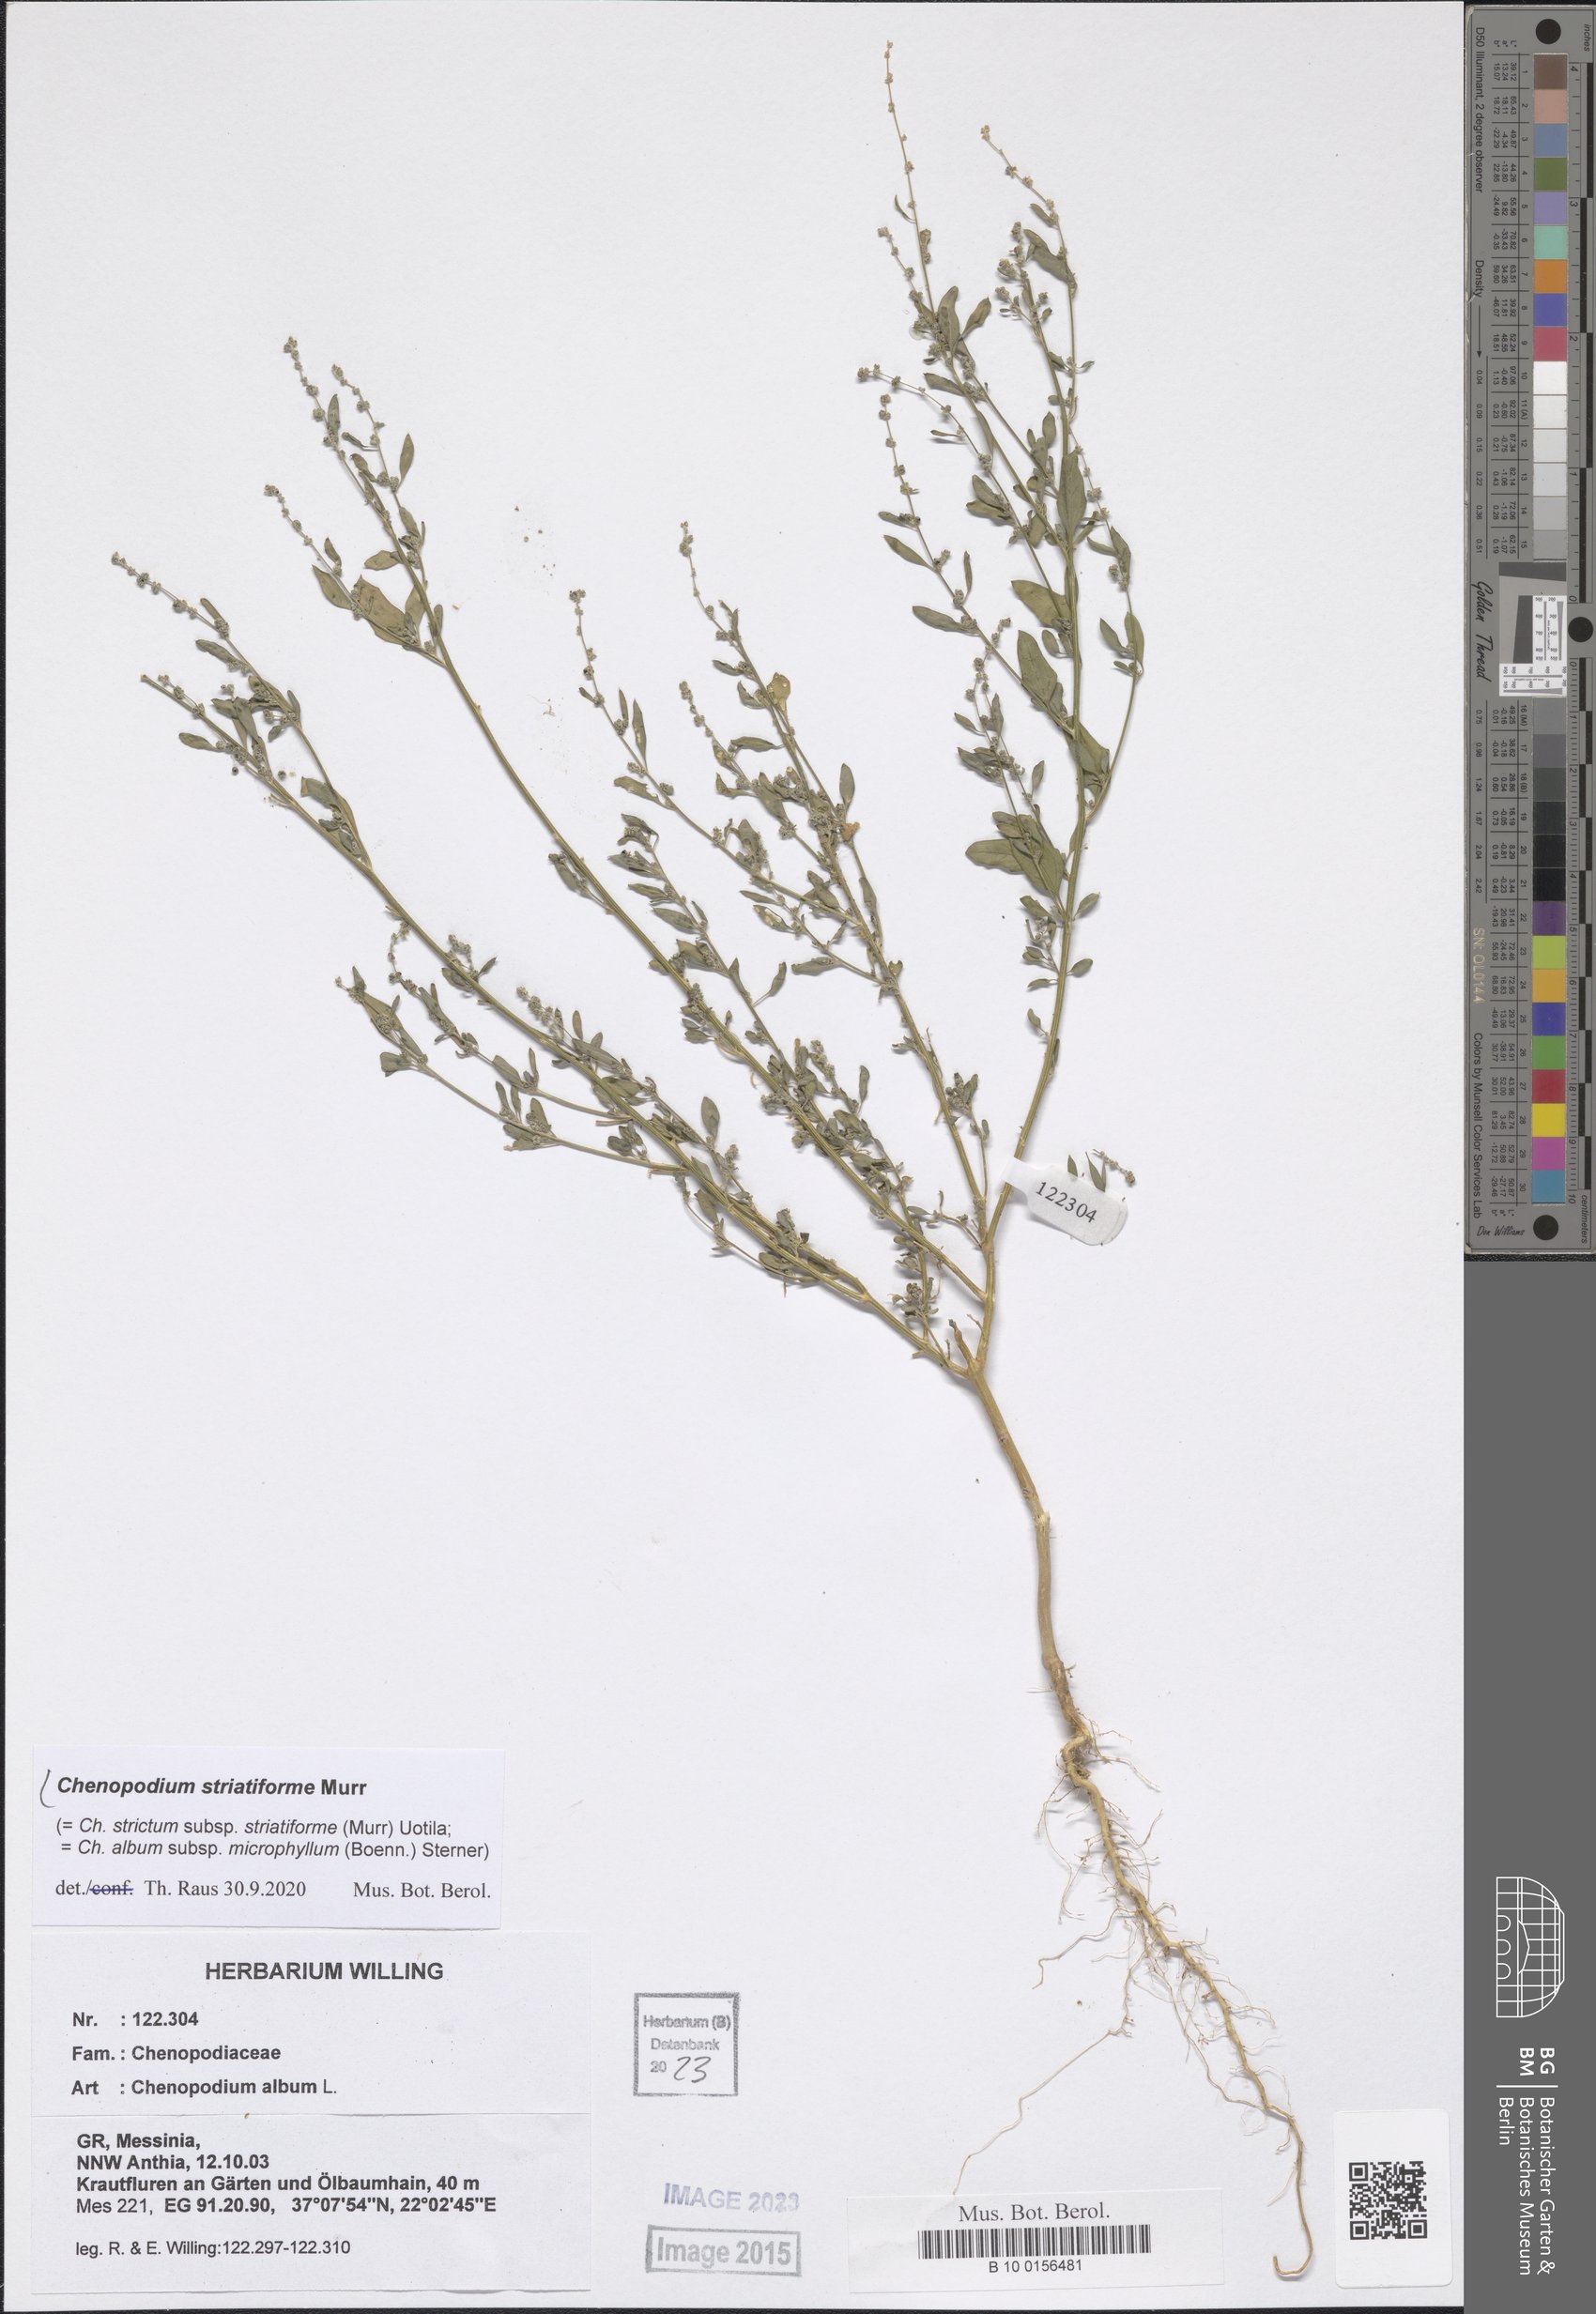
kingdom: Plantae
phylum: Tracheophyta
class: Magnoliopsida
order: Caryophyllales
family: Amaranthaceae
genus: Chenopodium
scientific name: Chenopodium striatiforme
